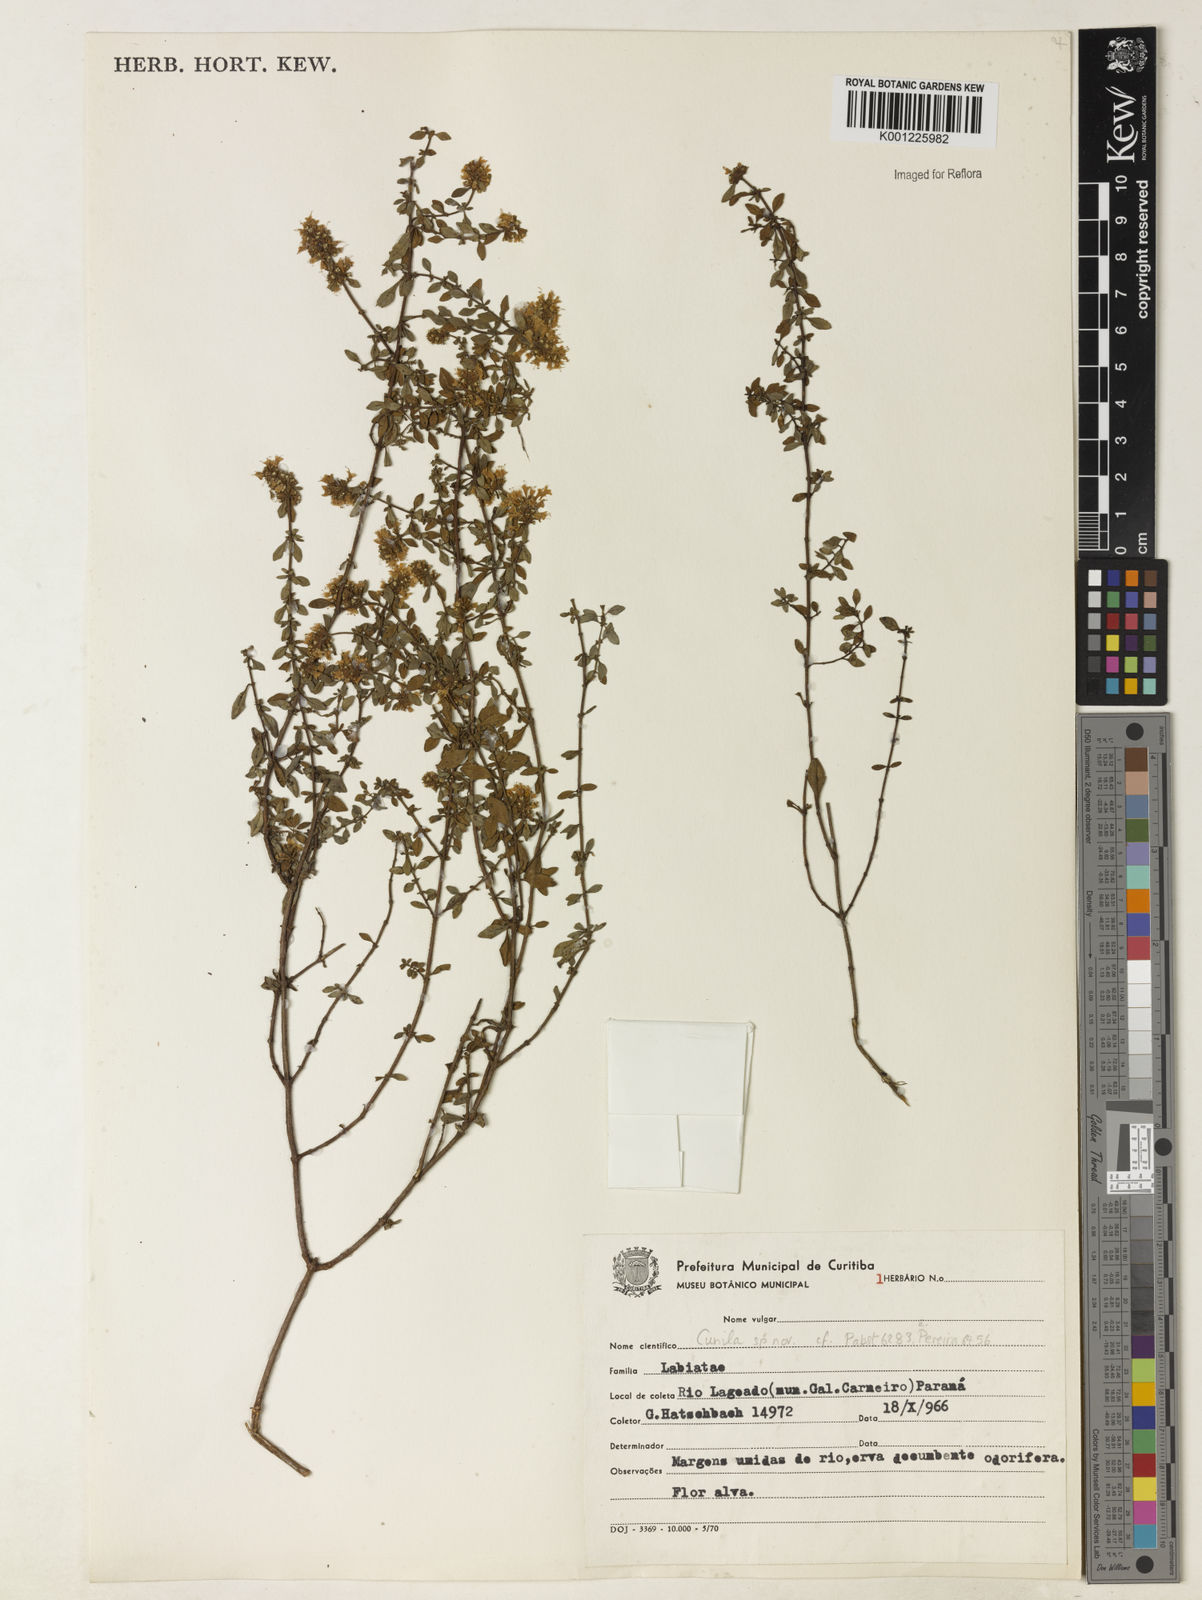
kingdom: Plantae
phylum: Tracheophyta
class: Magnoliopsida
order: Lamiales
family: Lamiaceae
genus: Cunila
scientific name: Cunila spicata
